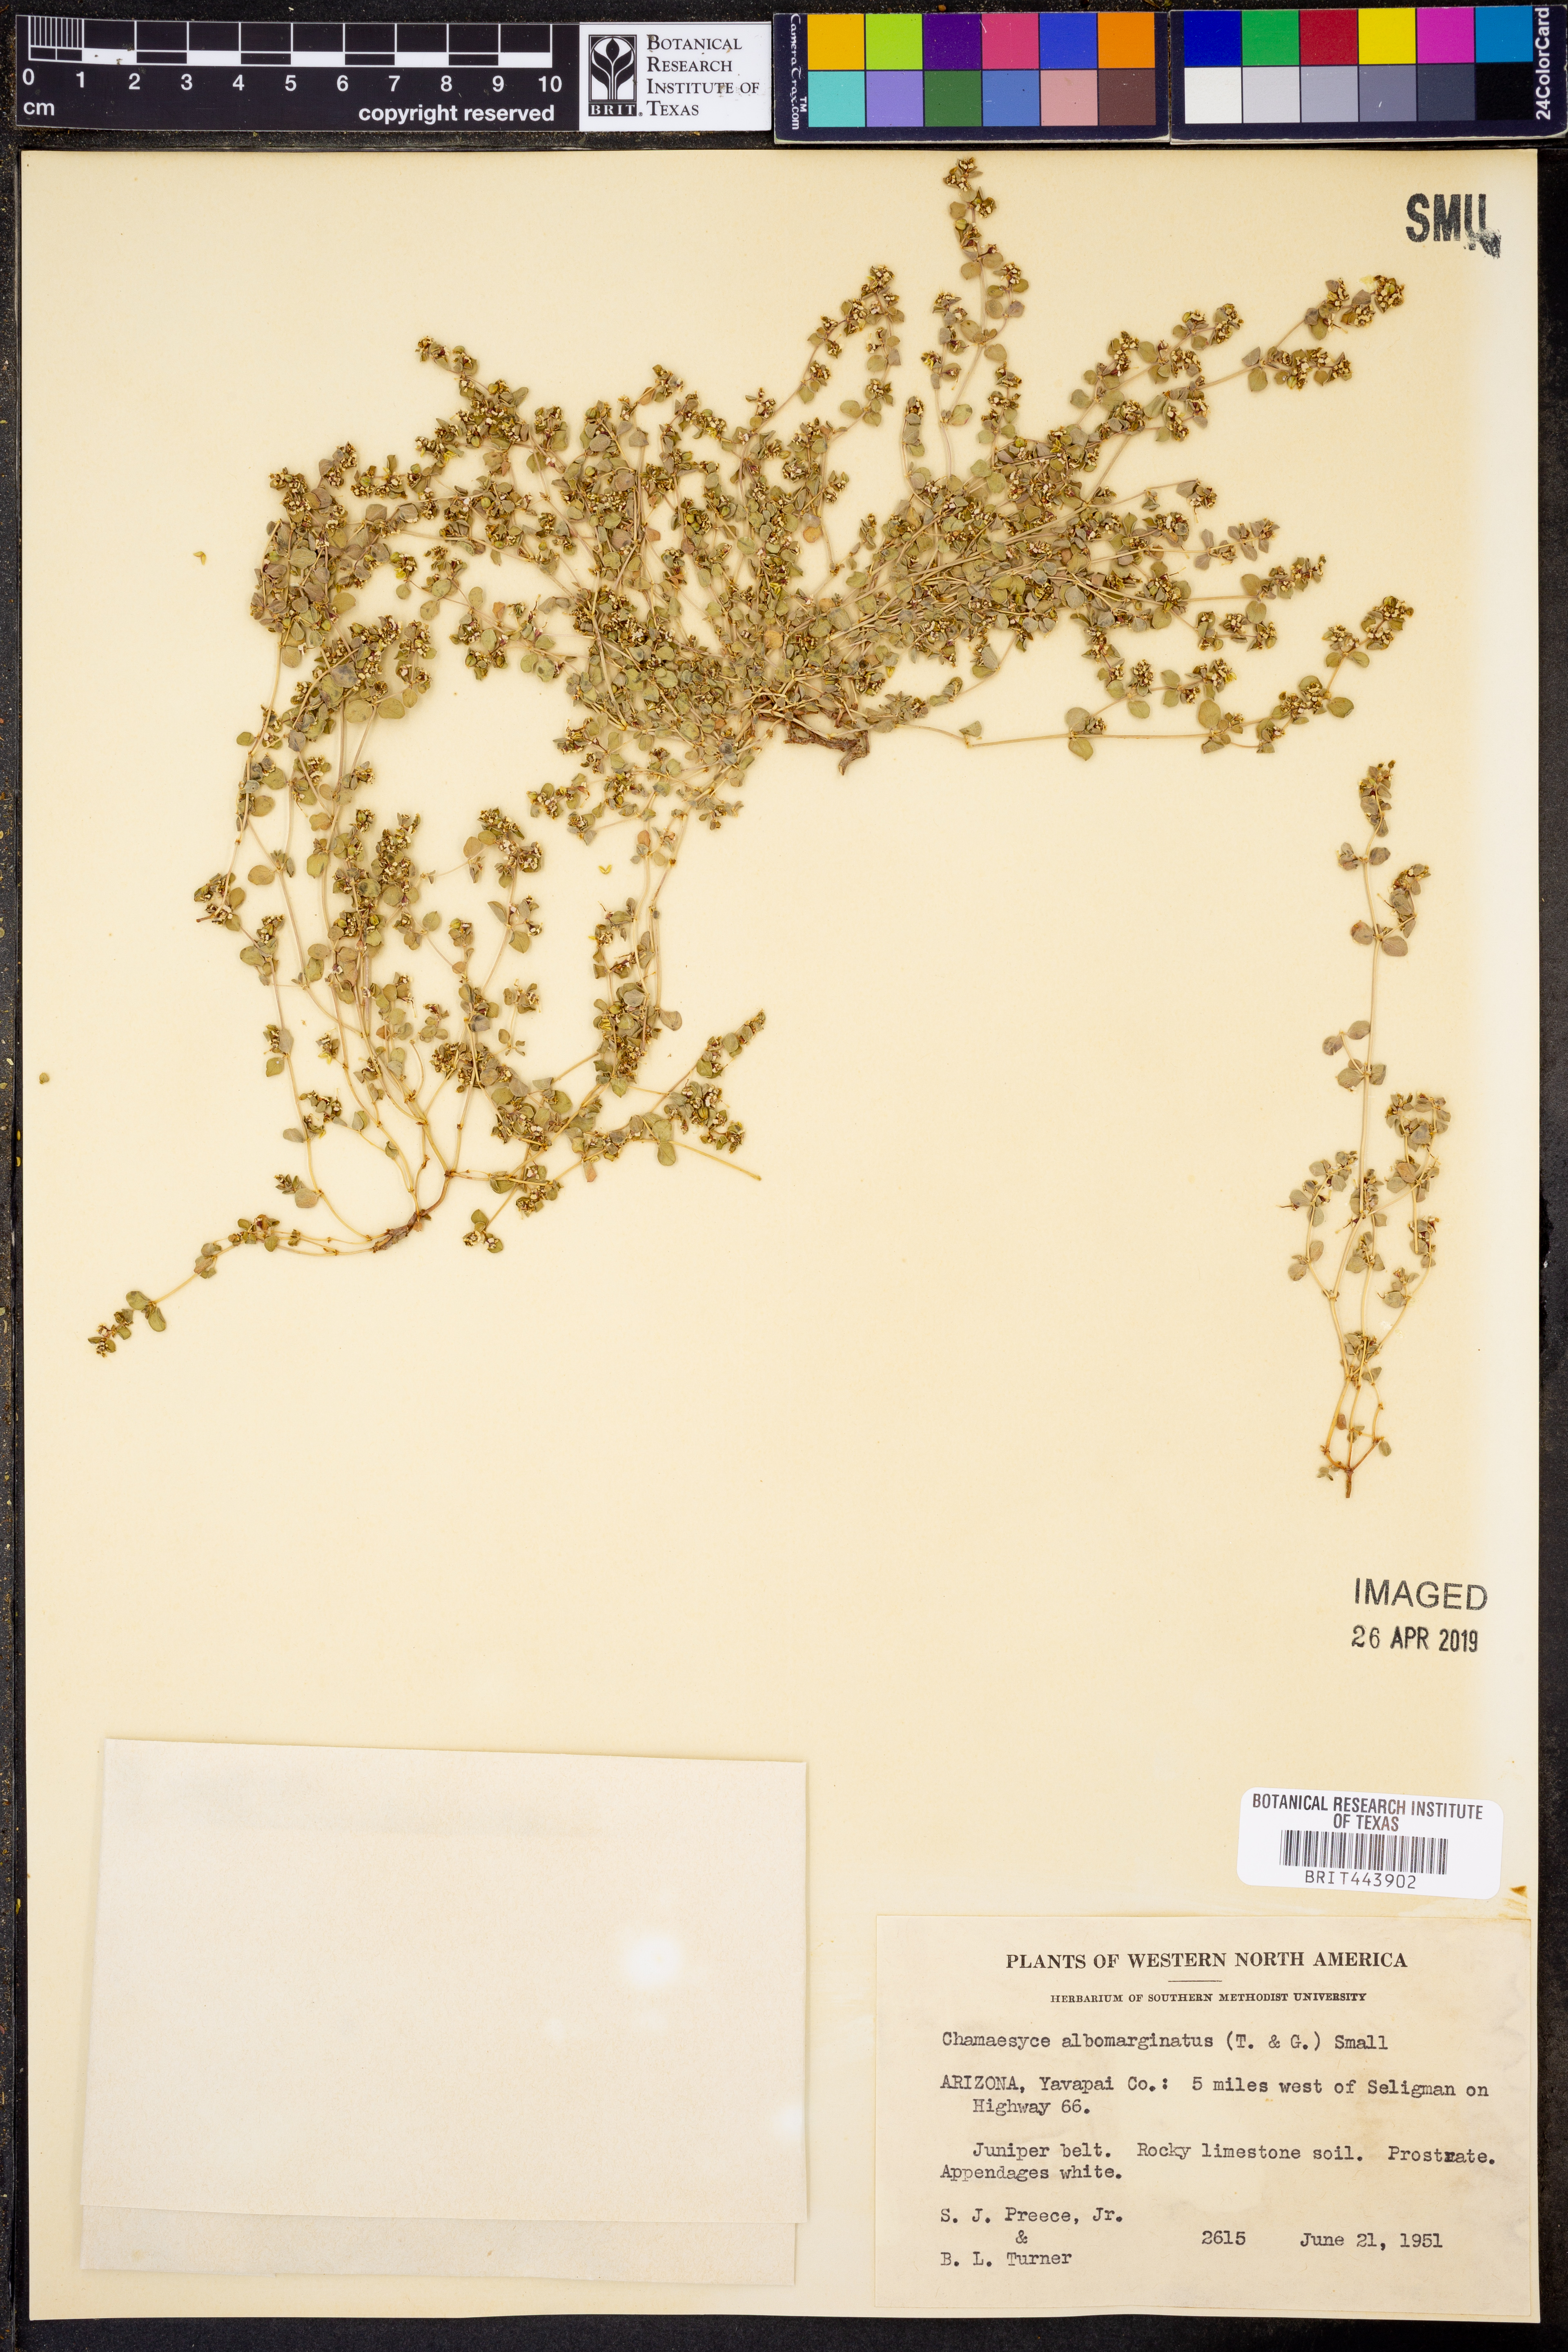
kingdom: Plantae
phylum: Tracheophyta
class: Magnoliopsida
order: Malpighiales
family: Euphorbiaceae
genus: Euphorbia
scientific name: Euphorbia albomarginata
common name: Whitemargin sandmat
